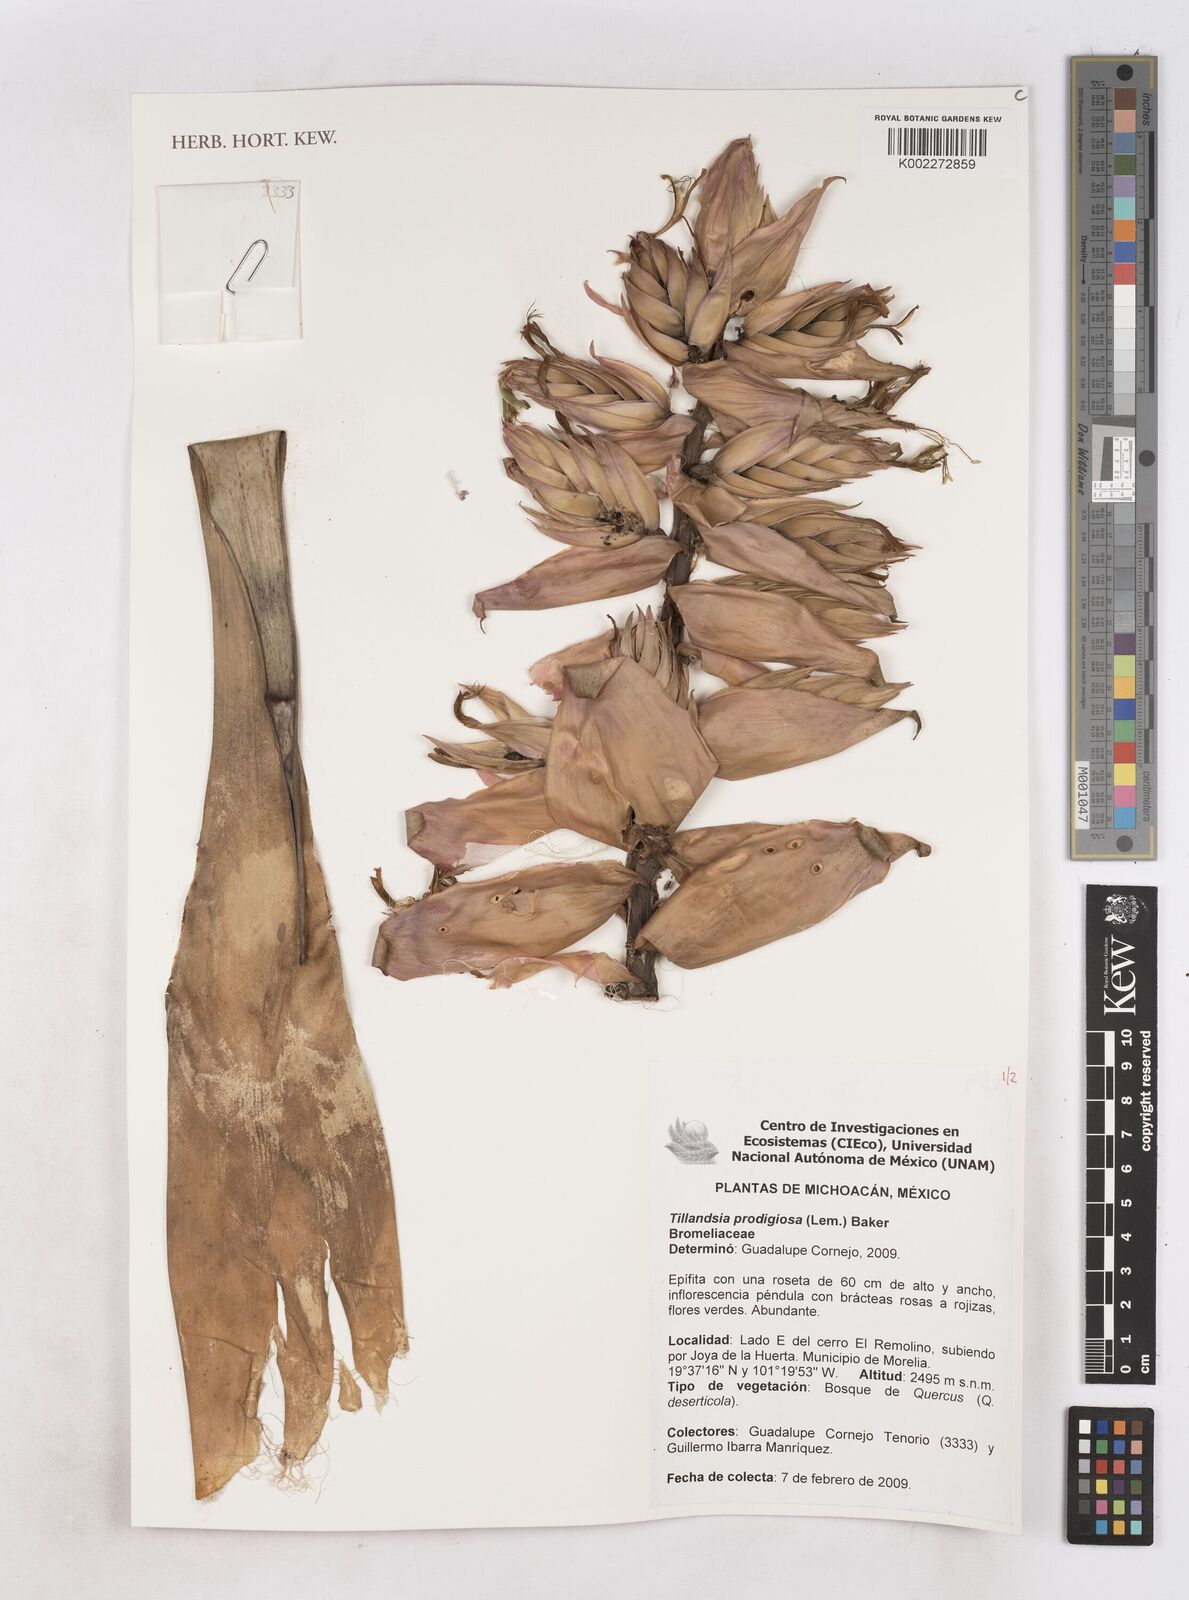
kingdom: Plantae
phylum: Tracheophyta
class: Liliopsida
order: Poales
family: Bromeliaceae
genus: Tillandsia
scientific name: Tillandsia prodigiosa
